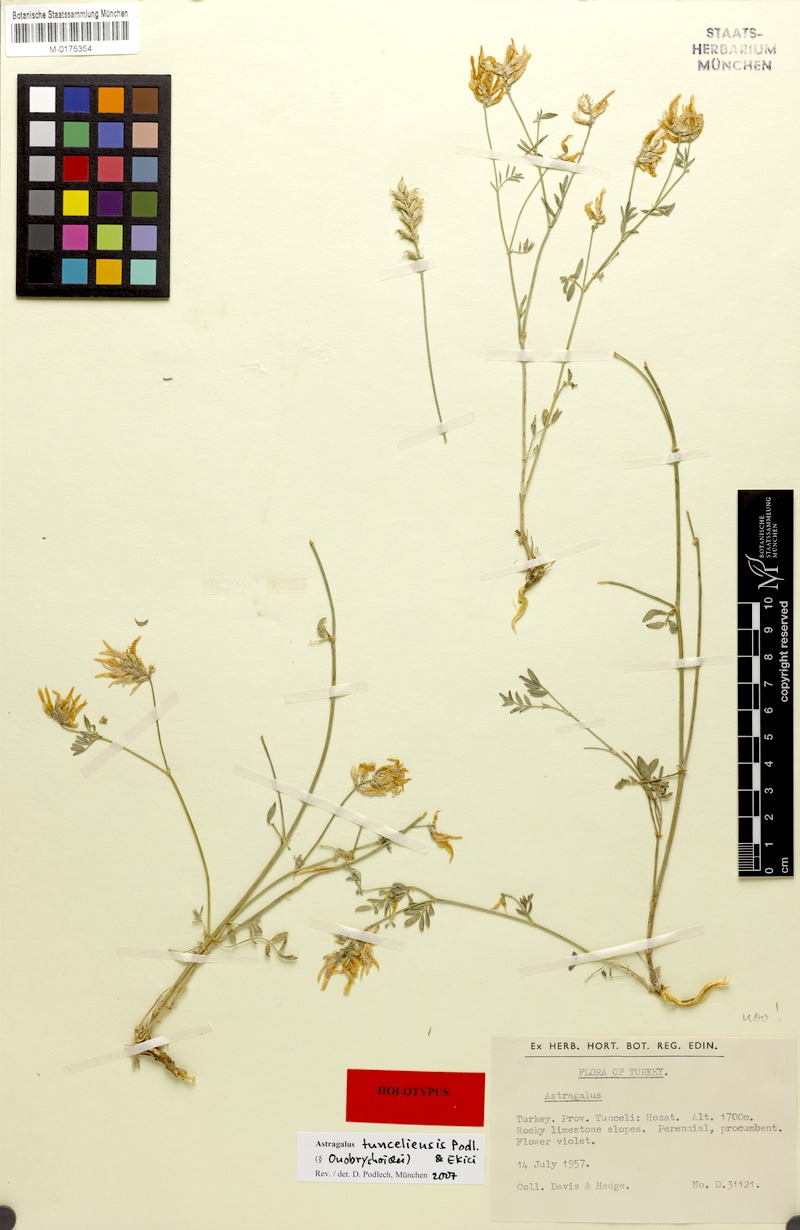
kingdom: Plantae
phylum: Tracheophyta
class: Magnoliopsida
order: Fabales
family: Fabaceae
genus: Astragalus
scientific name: Astragalus aduncus
